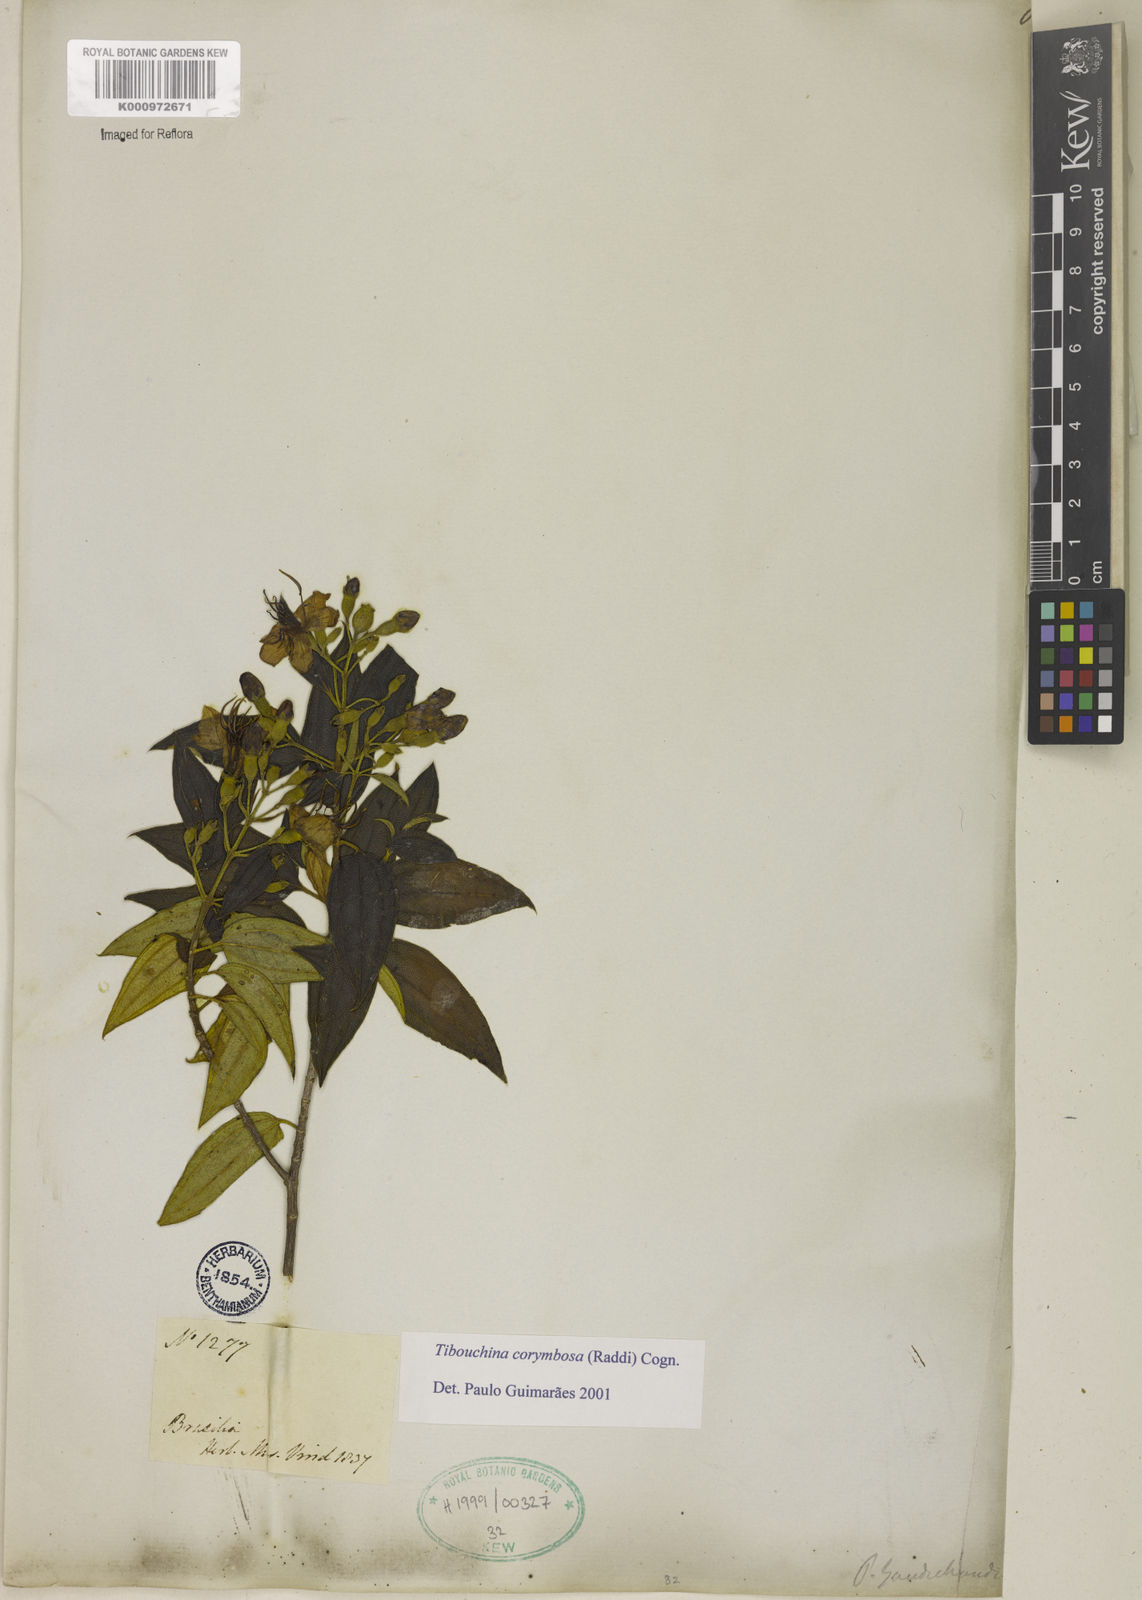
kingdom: Plantae
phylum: Tracheophyta
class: Magnoliopsida
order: Myrtales
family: Melastomataceae
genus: Pleroma
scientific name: Pleroma vimineum
